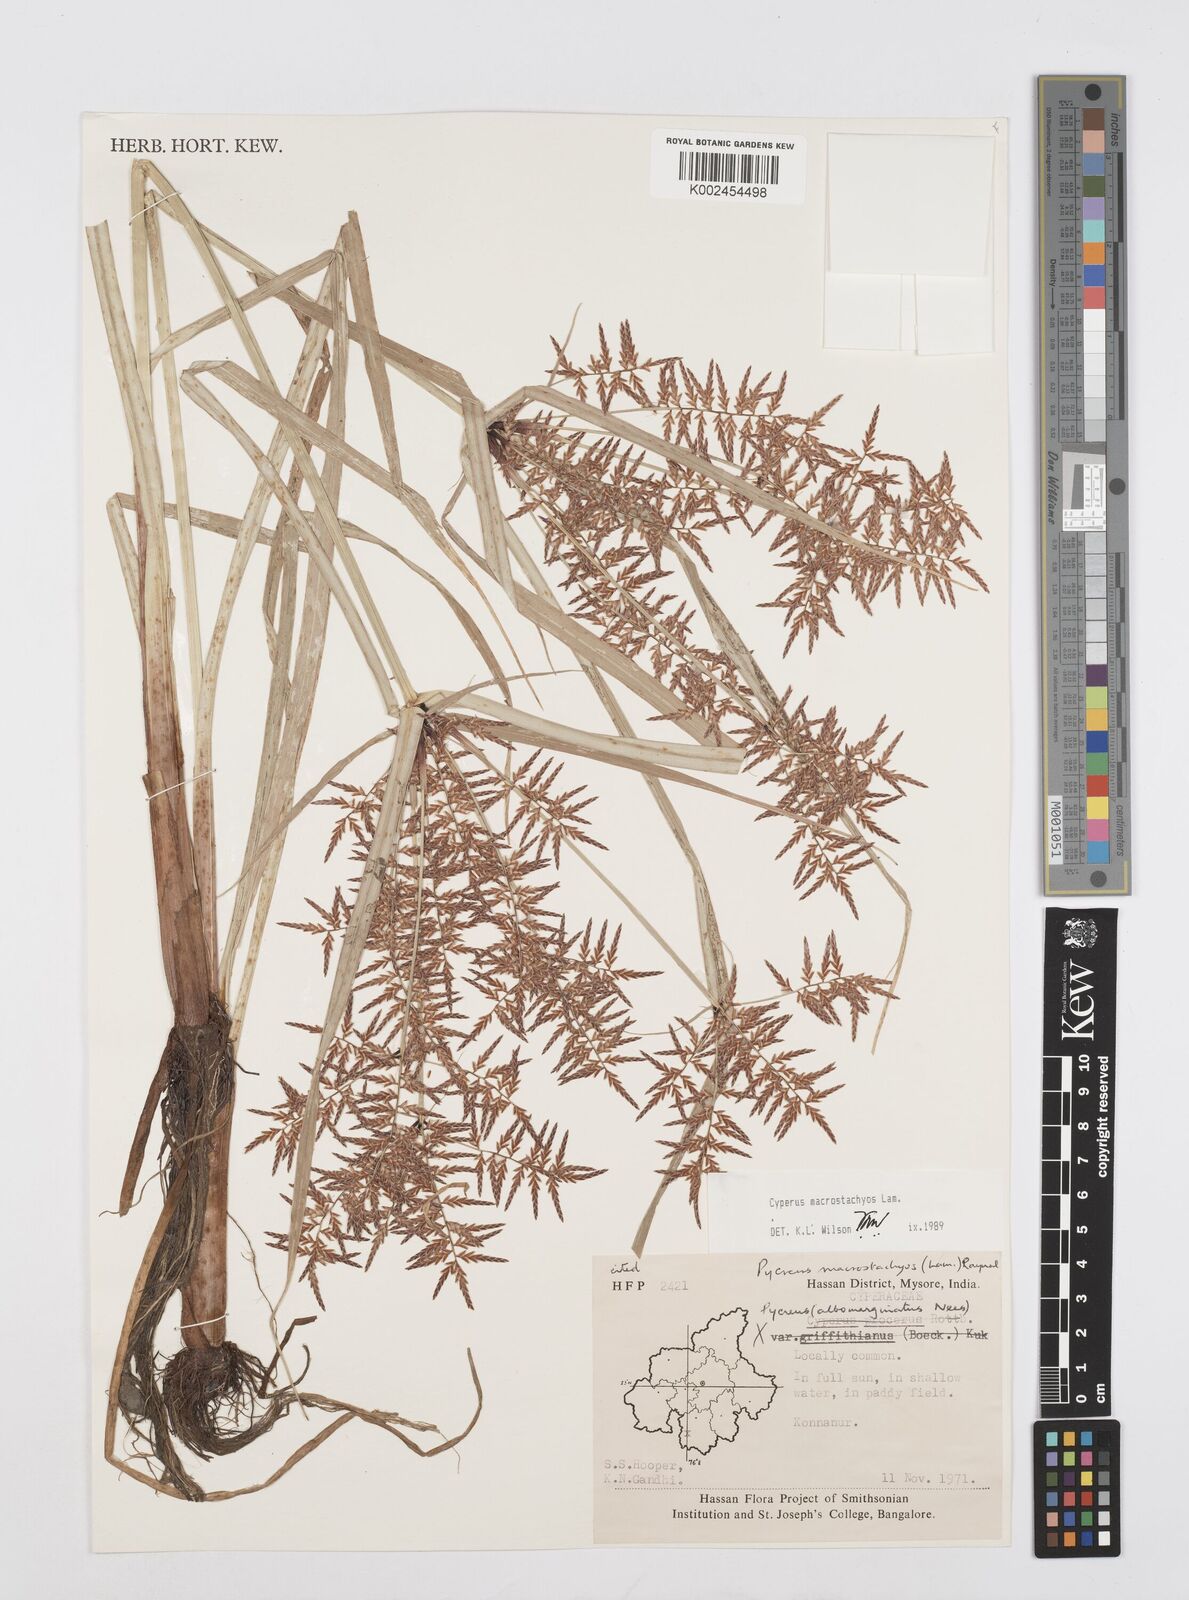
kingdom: Plantae
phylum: Tracheophyta
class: Liliopsida
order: Poales
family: Cyperaceae
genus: Cyperus
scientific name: Cyperus macrostachyos
